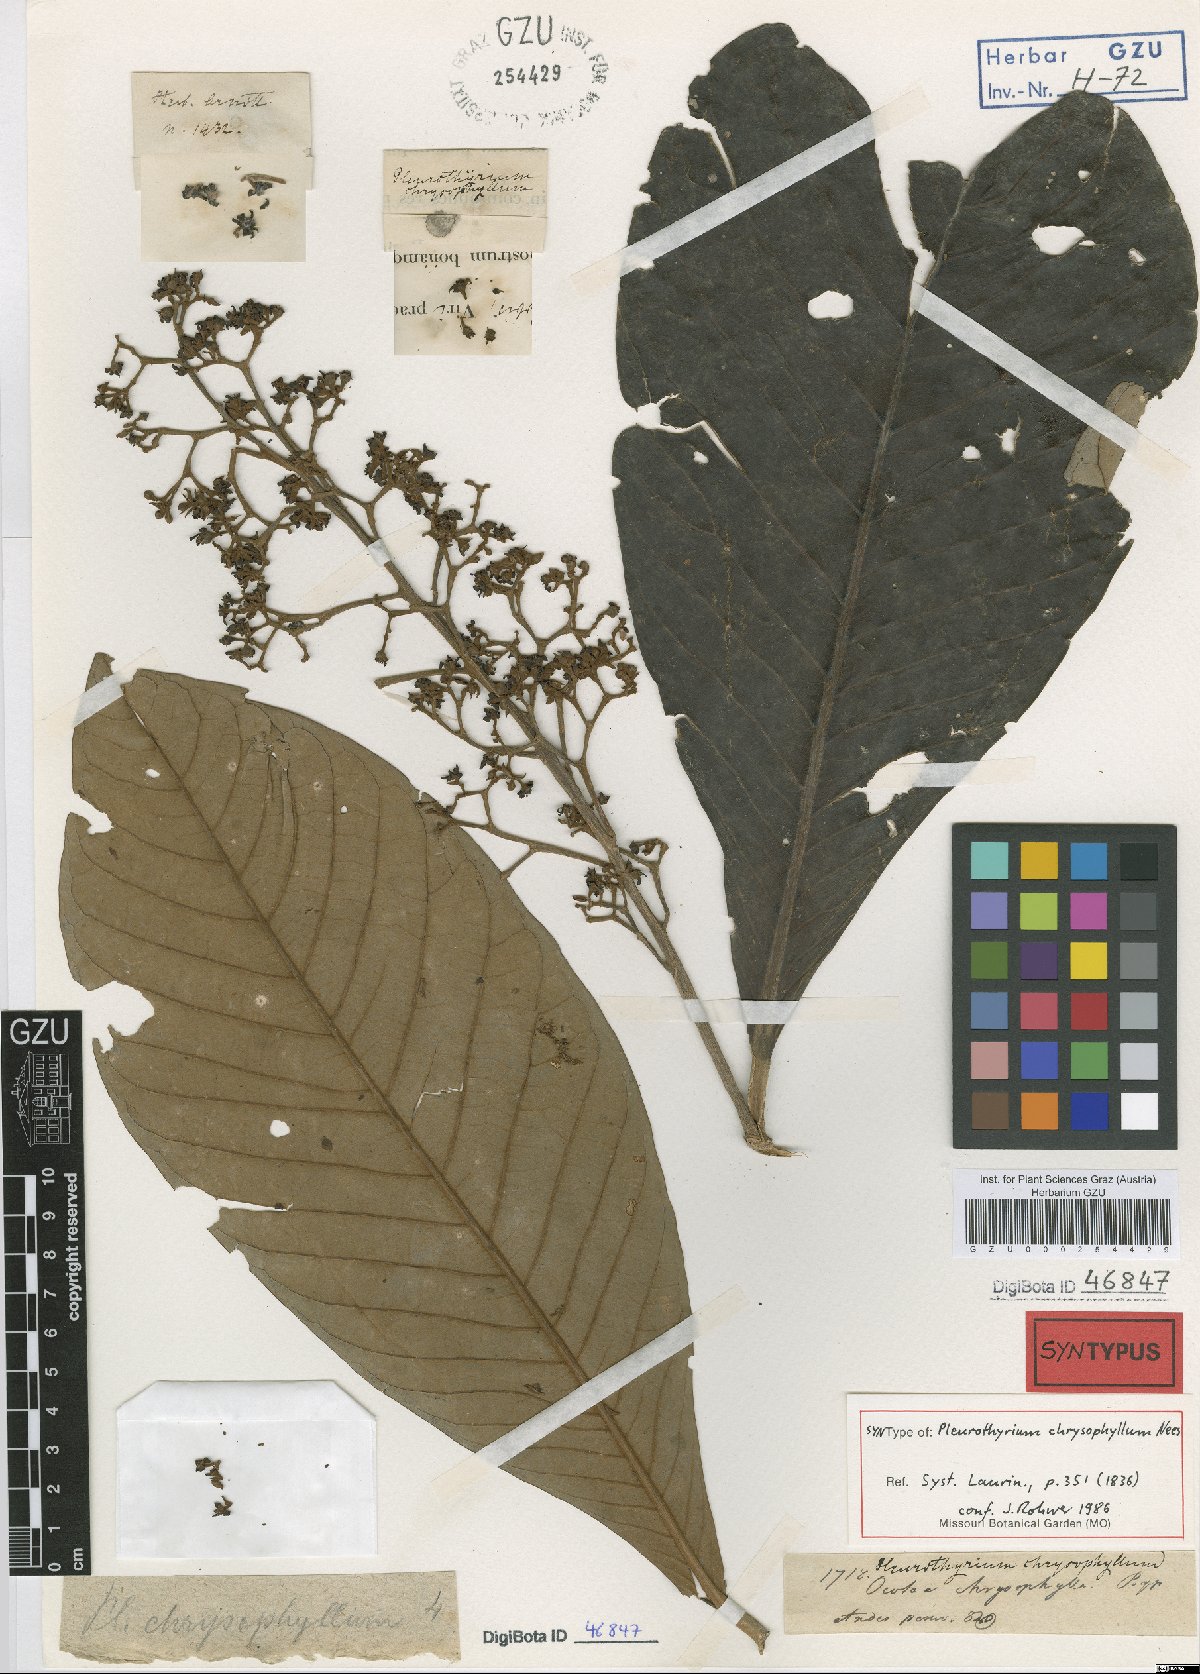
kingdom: Plantae
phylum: Tracheophyta
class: Magnoliopsida
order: Laurales
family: Lauraceae
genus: Pleurothyrium
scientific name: Pleurothyrium cuneifolium
